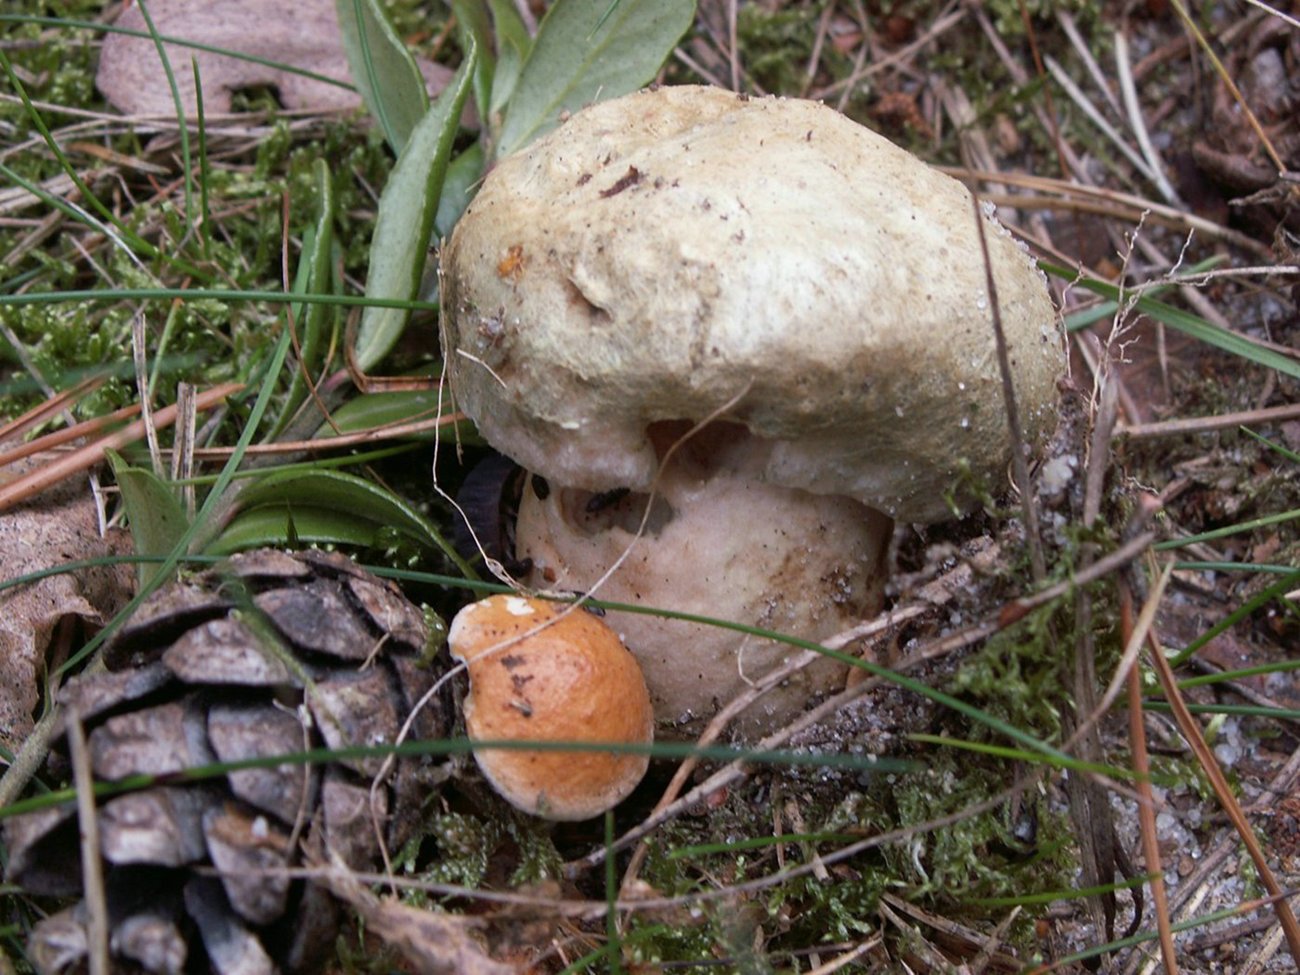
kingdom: Fungi
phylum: Basidiomycota
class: Agaricomycetes
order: Boletales
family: Gyroporaceae
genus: Gyroporus
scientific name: Gyroporus cyanescens
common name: blånende kammerrørhat
